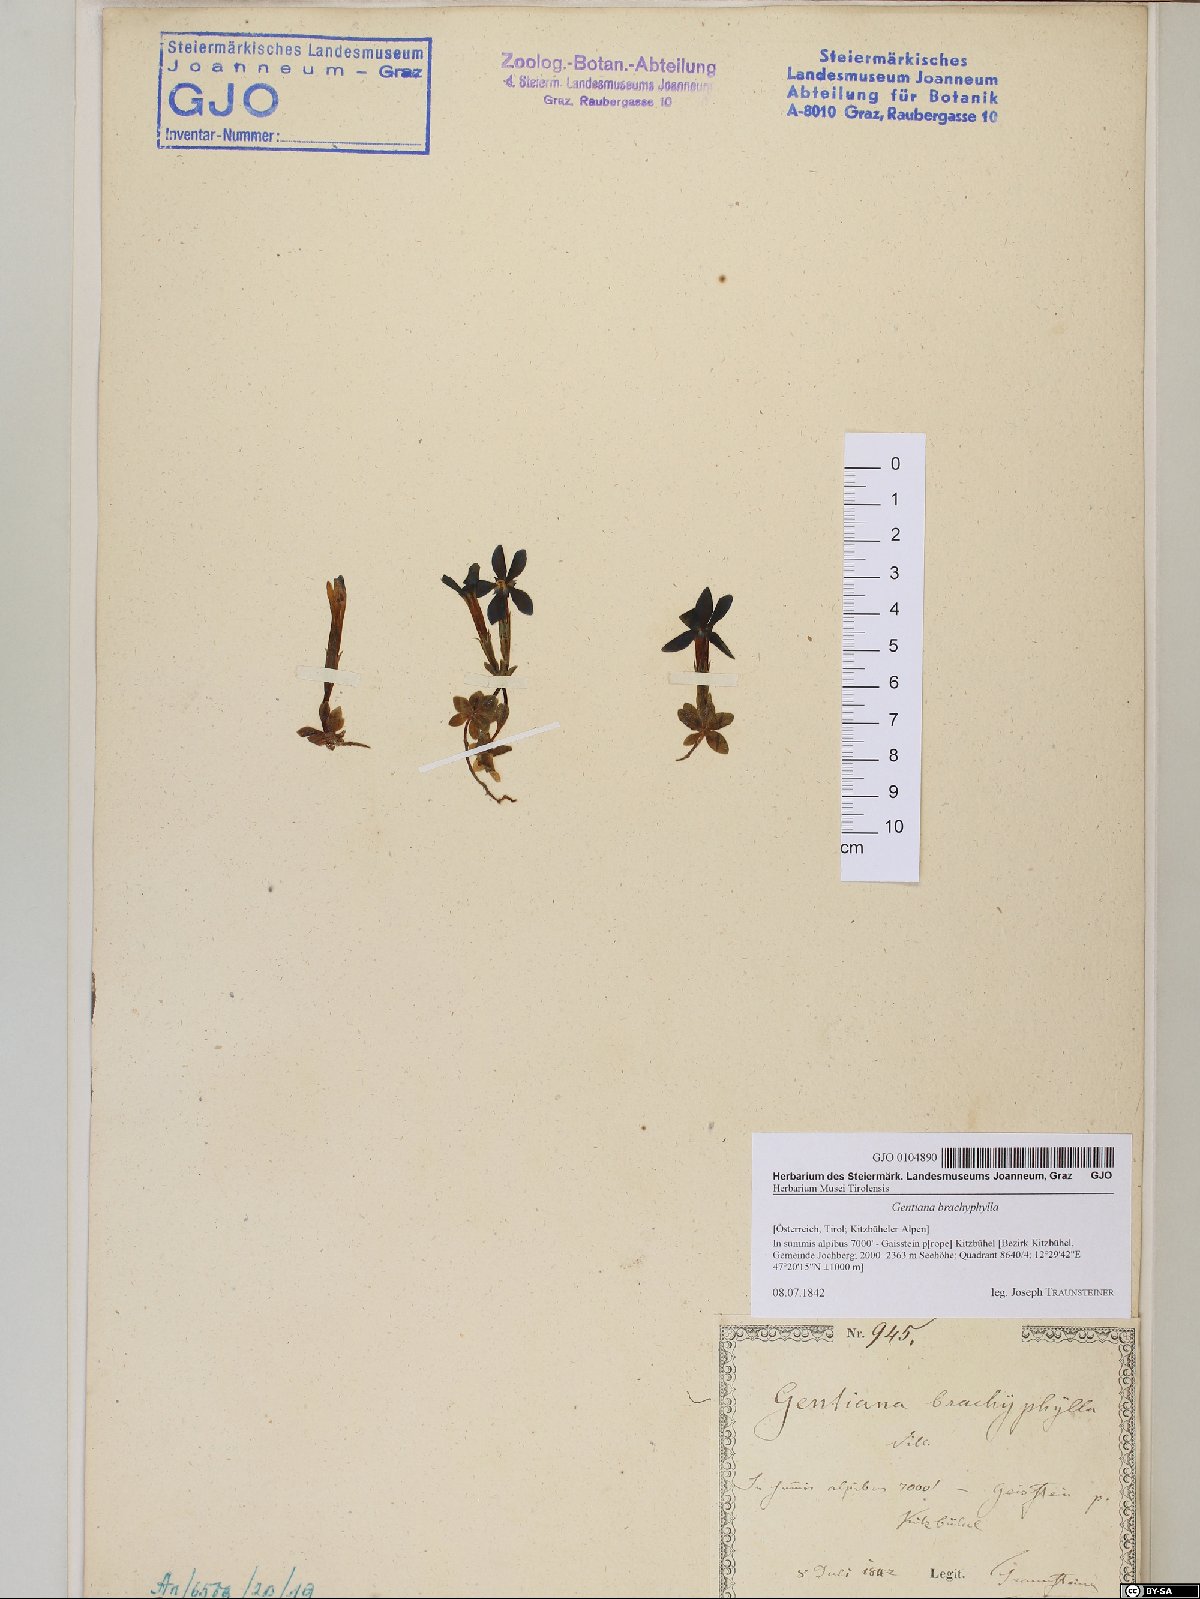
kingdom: Plantae
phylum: Tracheophyta
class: Magnoliopsida
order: Gentianales
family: Gentianaceae
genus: Gentiana
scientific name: Gentiana brachyphylla
